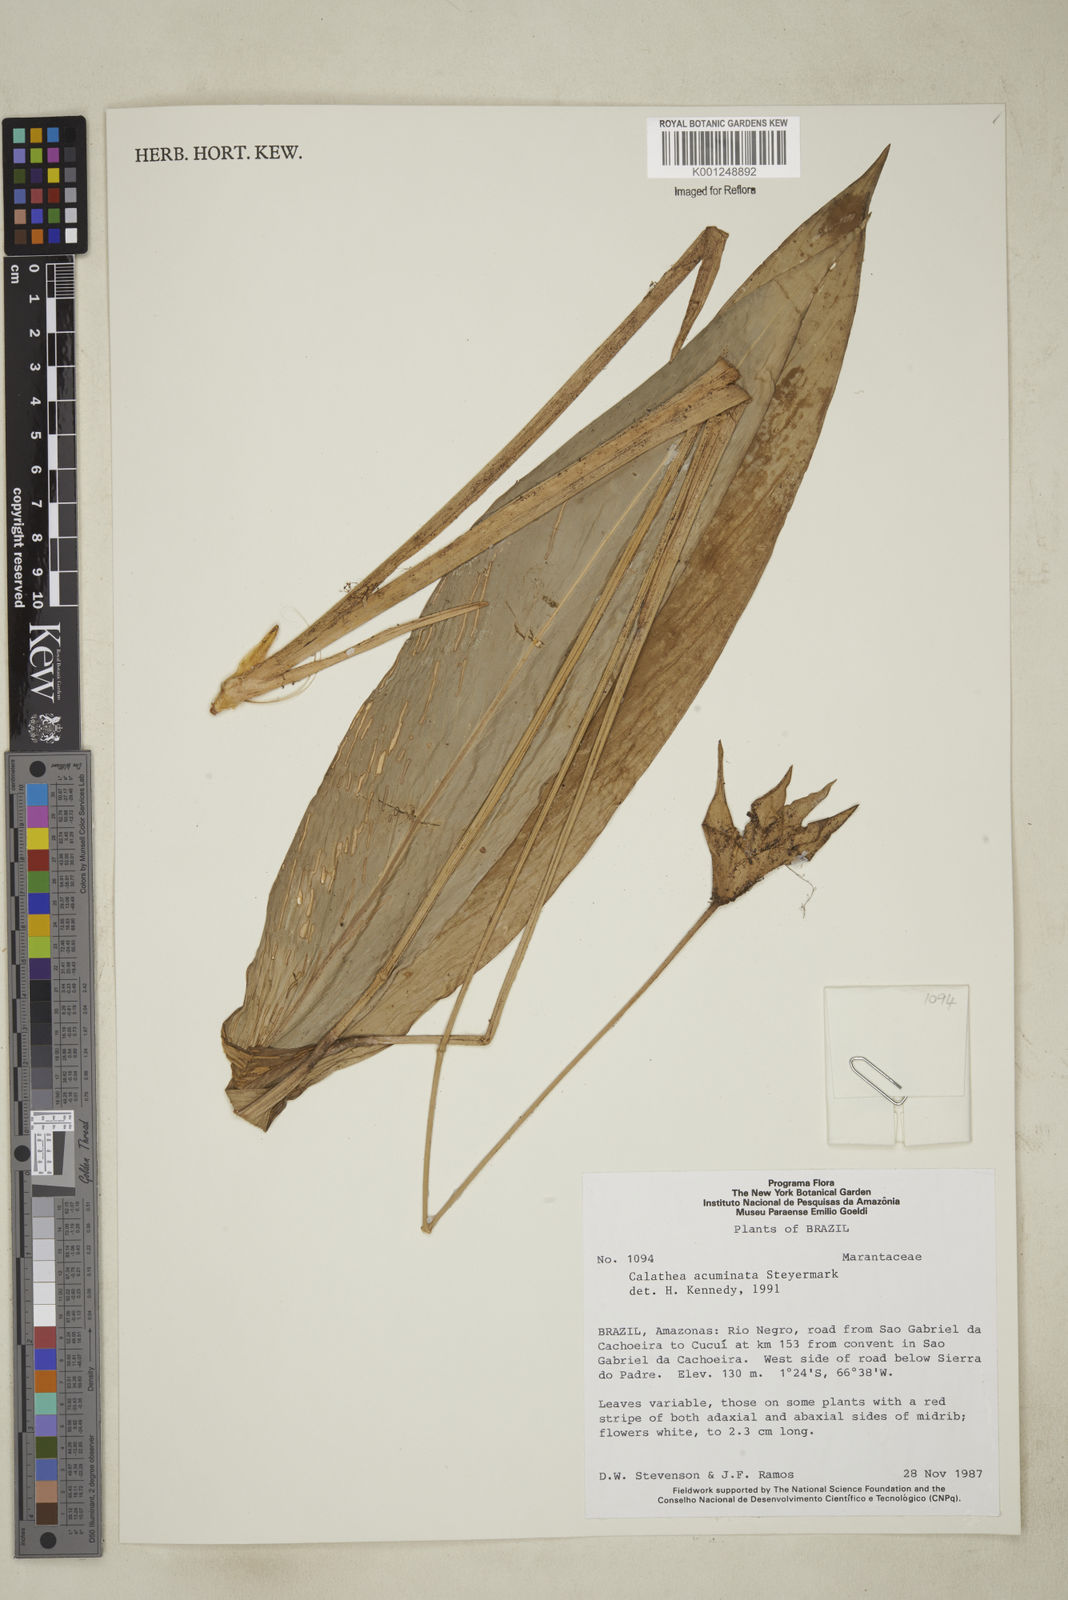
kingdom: Plantae
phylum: Tracheophyta
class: Liliopsida
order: Zingiberales
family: Marantaceae
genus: Goeppertia
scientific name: Goeppertia acuminata
